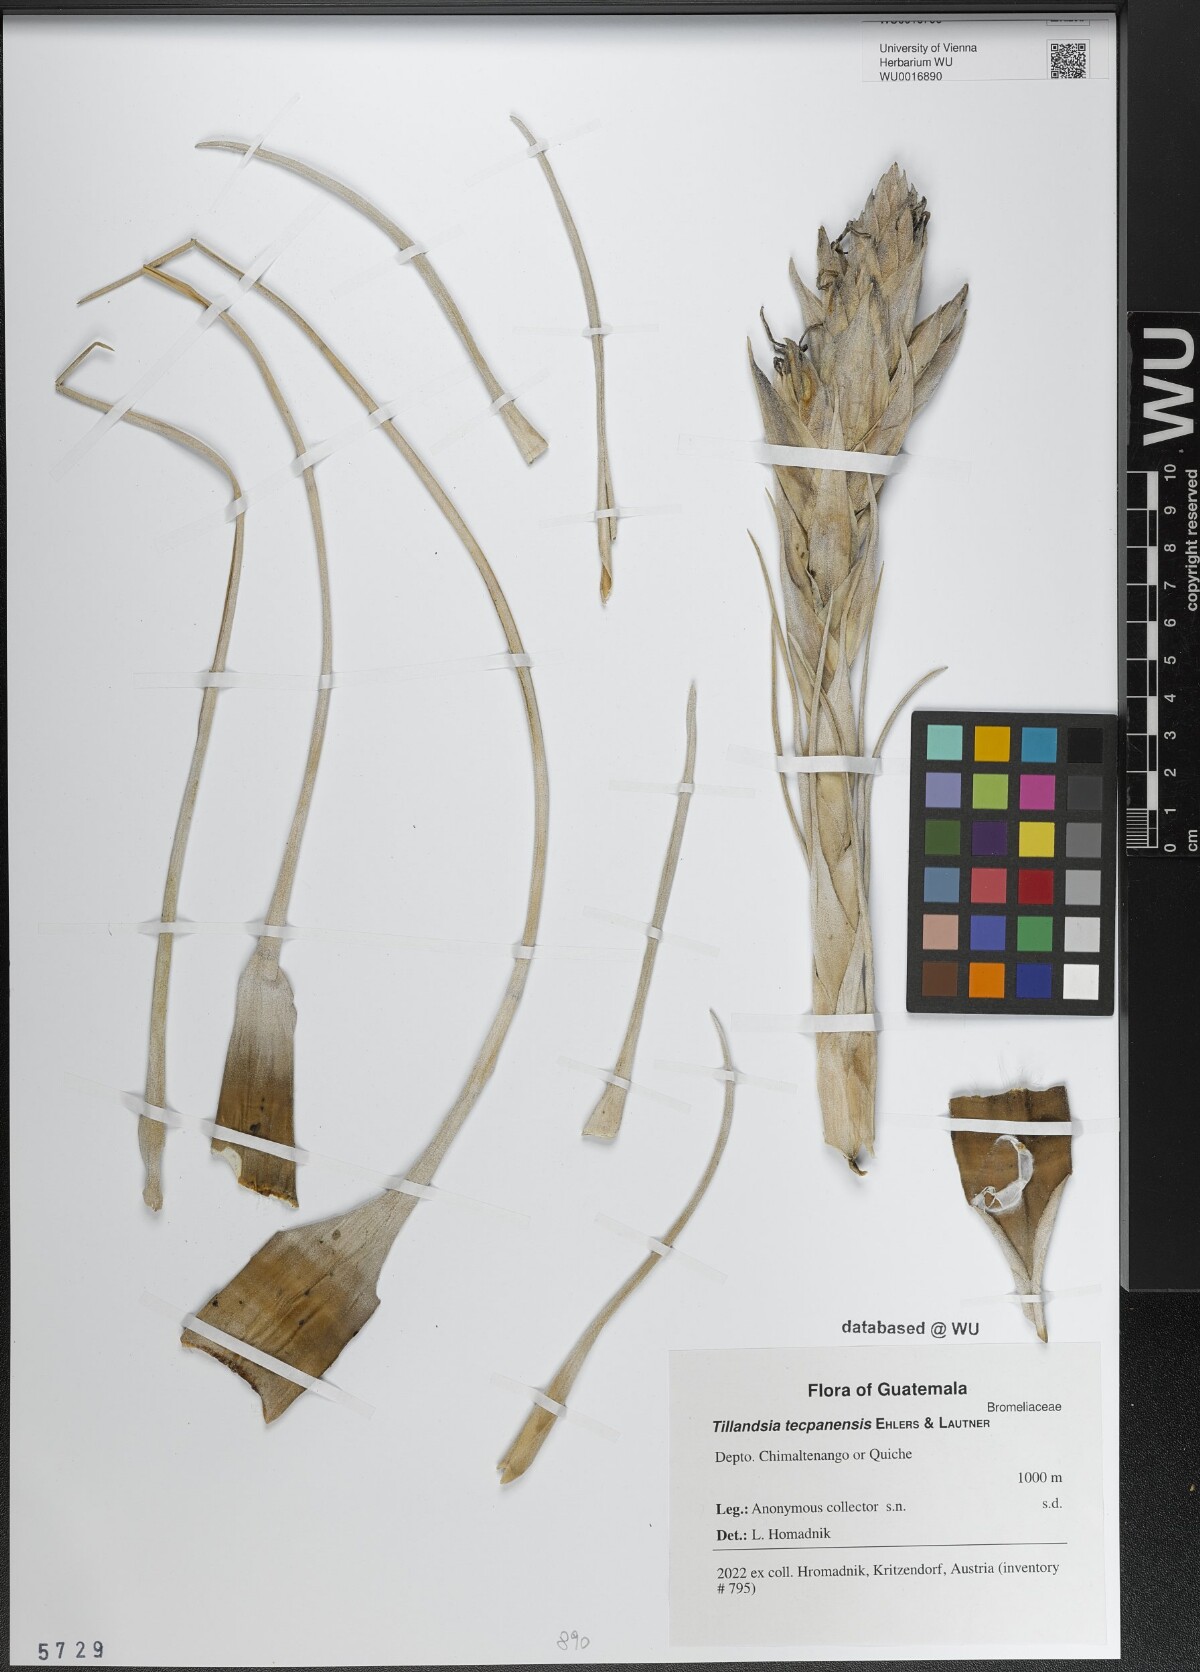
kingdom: Plantae
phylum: Tracheophyta
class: Liliopsida
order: Poales
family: Bromeliaceae
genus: Tillandsia
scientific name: Tillandsia tecpanensis
